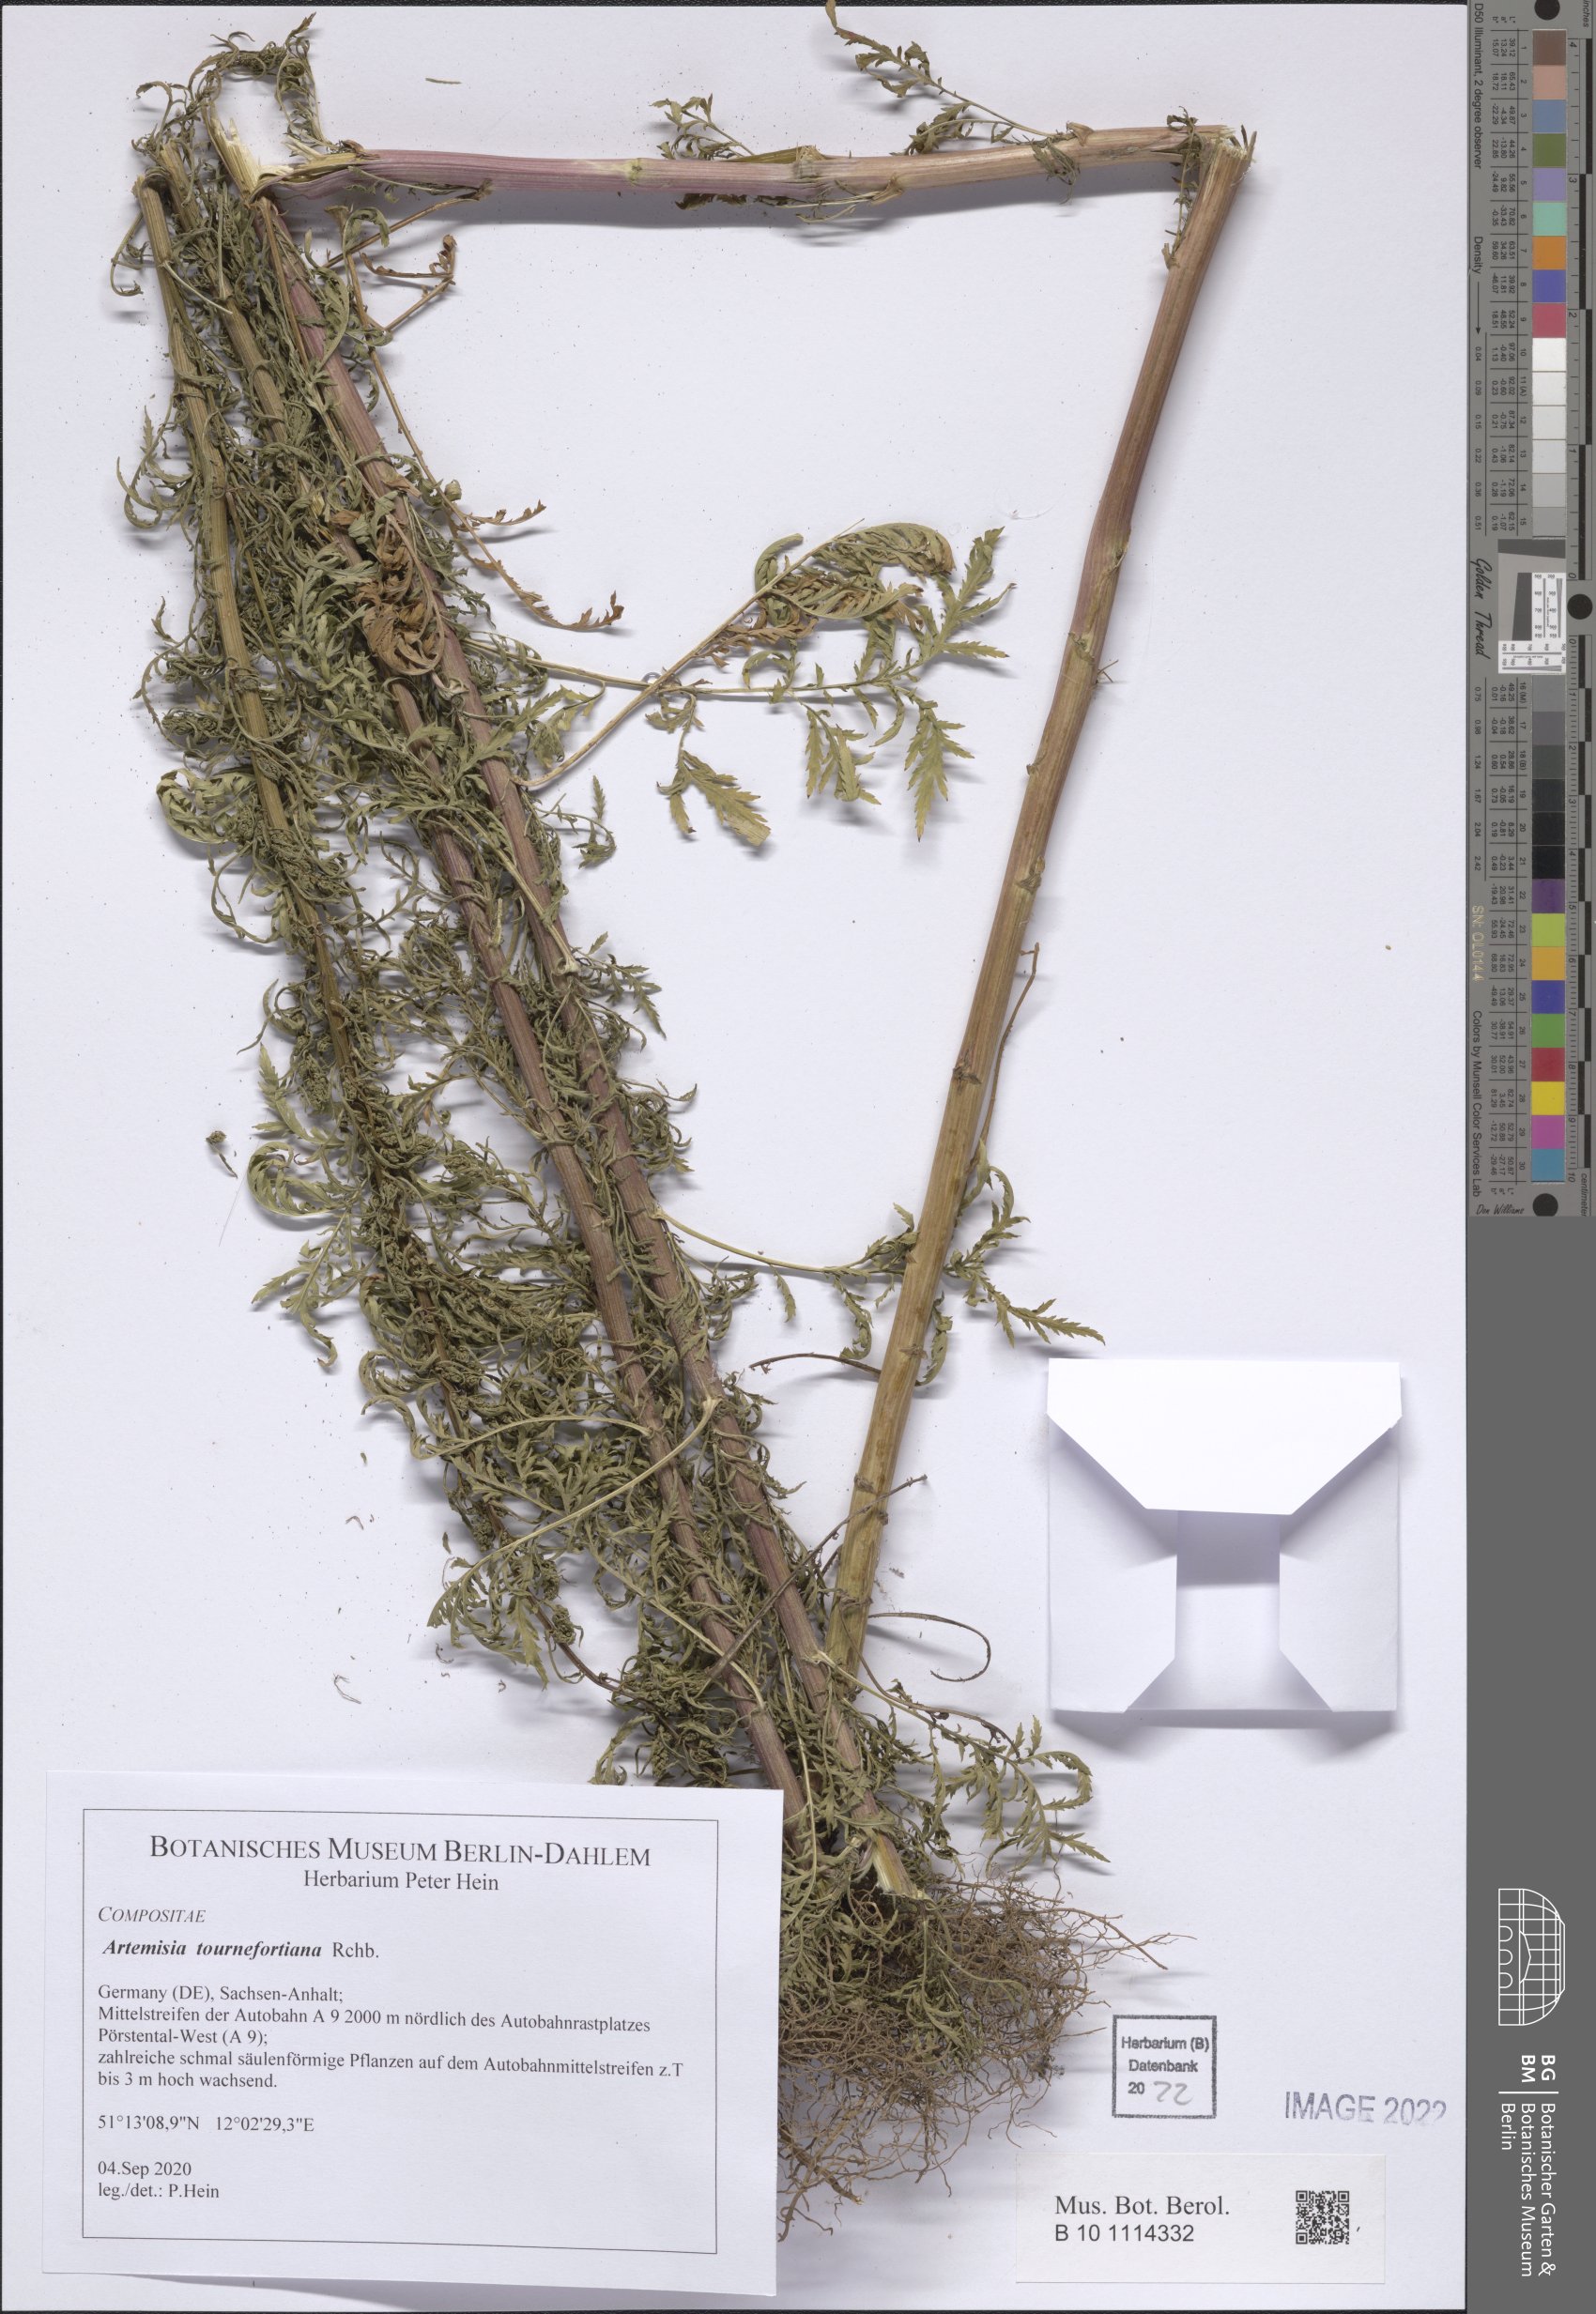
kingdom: Plantae
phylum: Tracheophyta
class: Magnoliopsida
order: Asterales
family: Asteraceae
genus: Artemisia
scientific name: Artemisia tournefortiana
